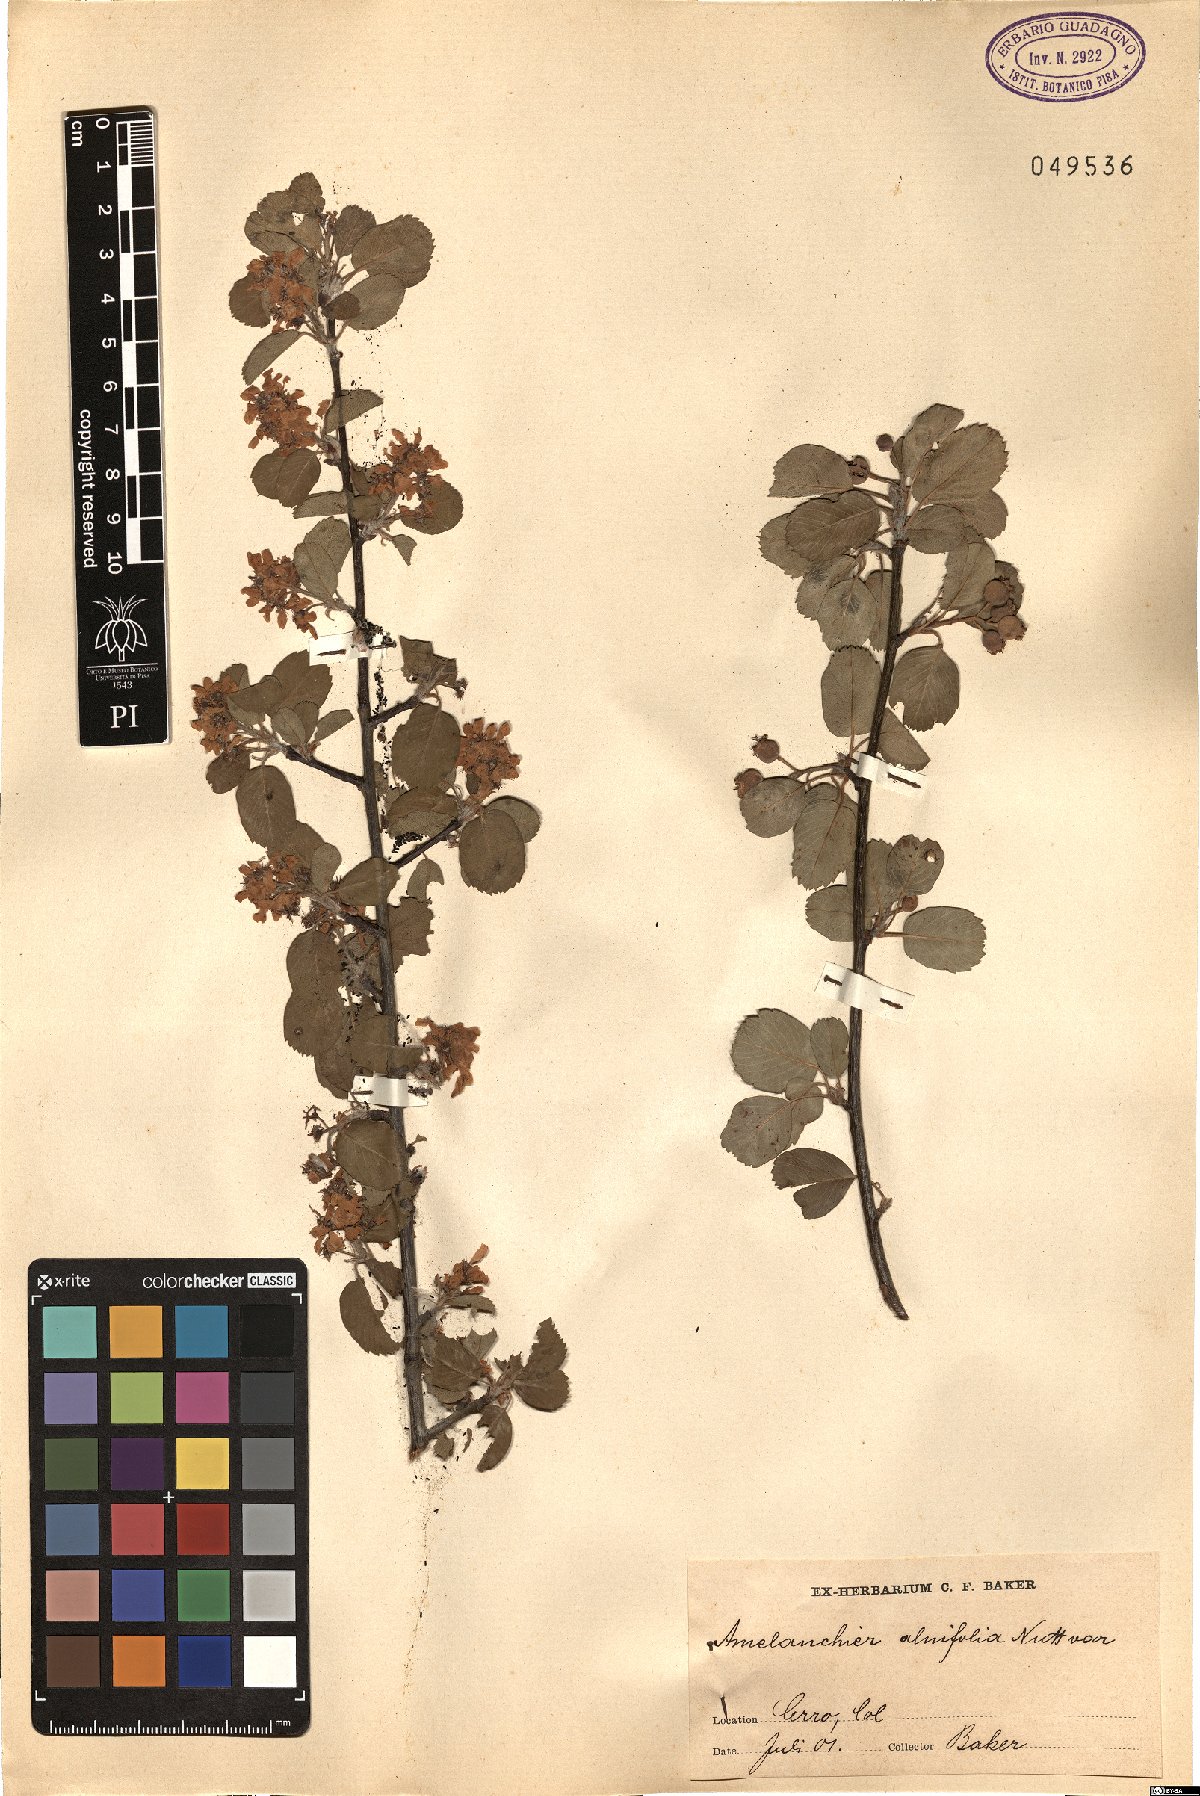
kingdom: Plantae
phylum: Tracheophyta
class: Magnoliopsida
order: Rosales
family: Rosaceae
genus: Amelanchier
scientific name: Amelanchier alnifolia
